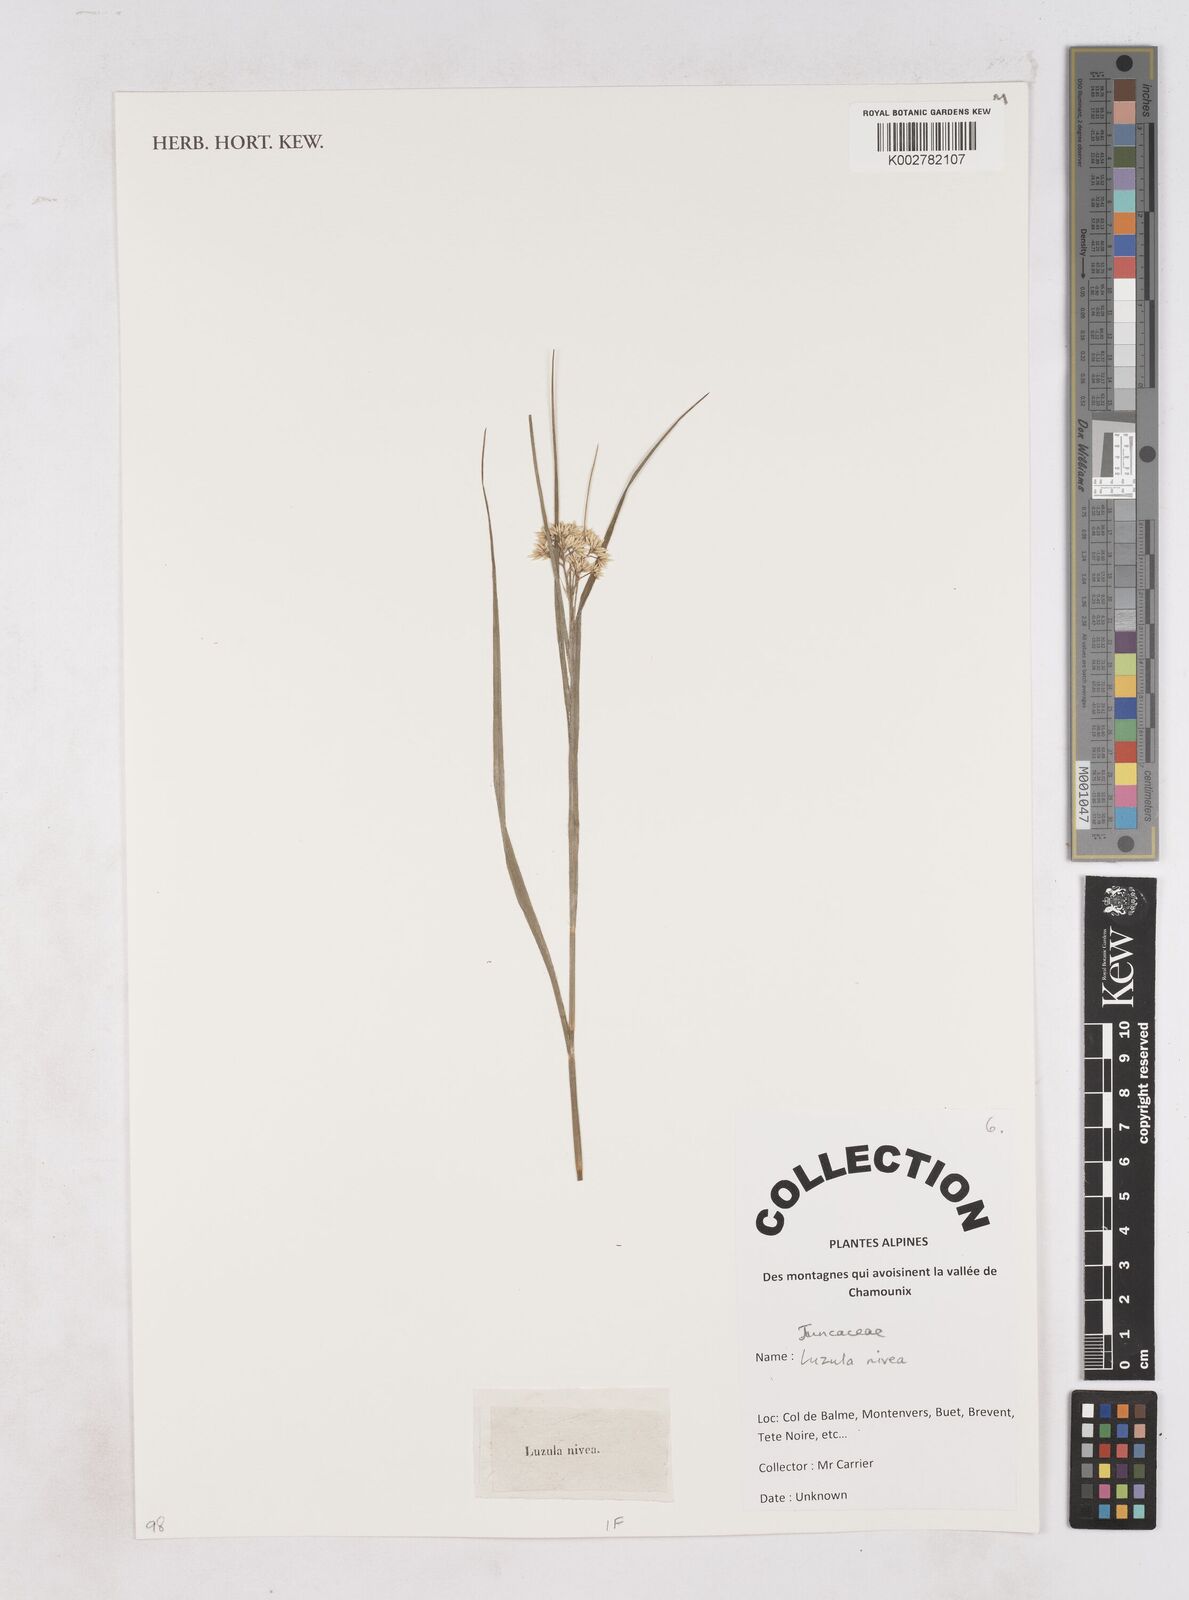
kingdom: Plantae
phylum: Tracheophyta
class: Liliopsida
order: Poales
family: Juncaceae
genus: Luzula
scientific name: Luzula nivea
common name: Snow-white wood-rush
